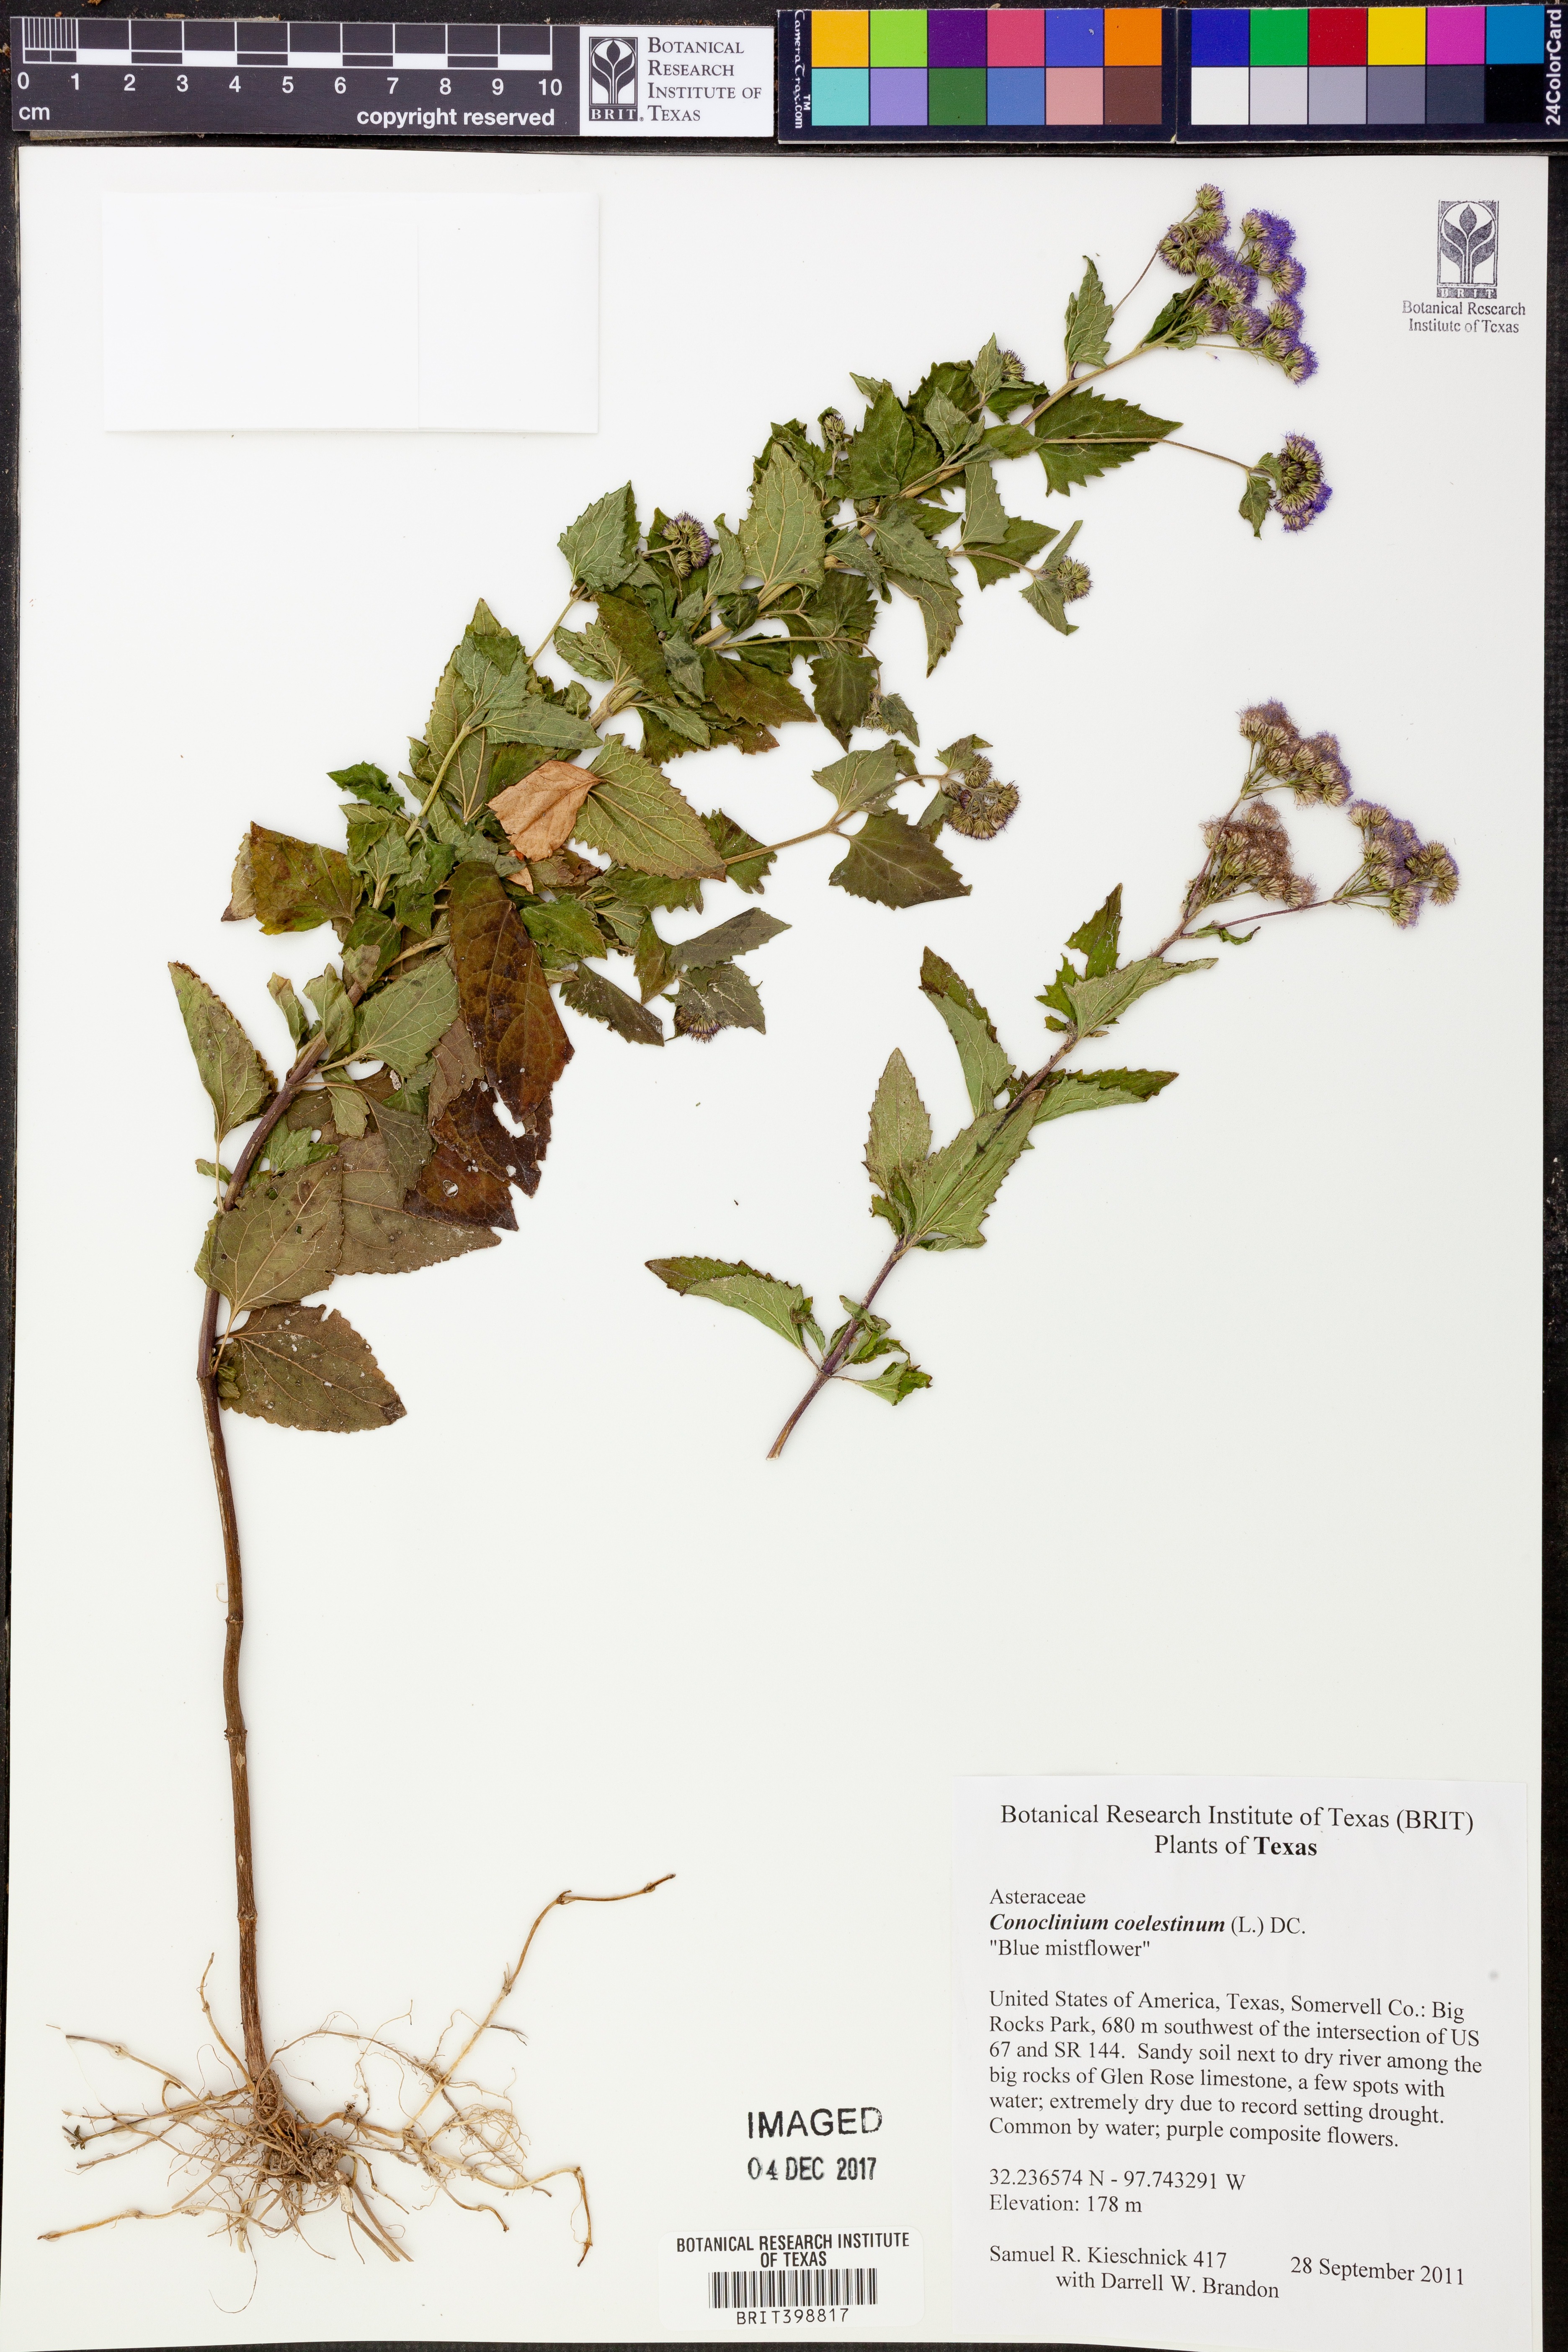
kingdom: Plantae
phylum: Tracheophyta
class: Magnoliopsida
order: Asterales
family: Asteraceae
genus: Conoclinium
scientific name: Conoclinium coelestinum
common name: Blue mistflower
